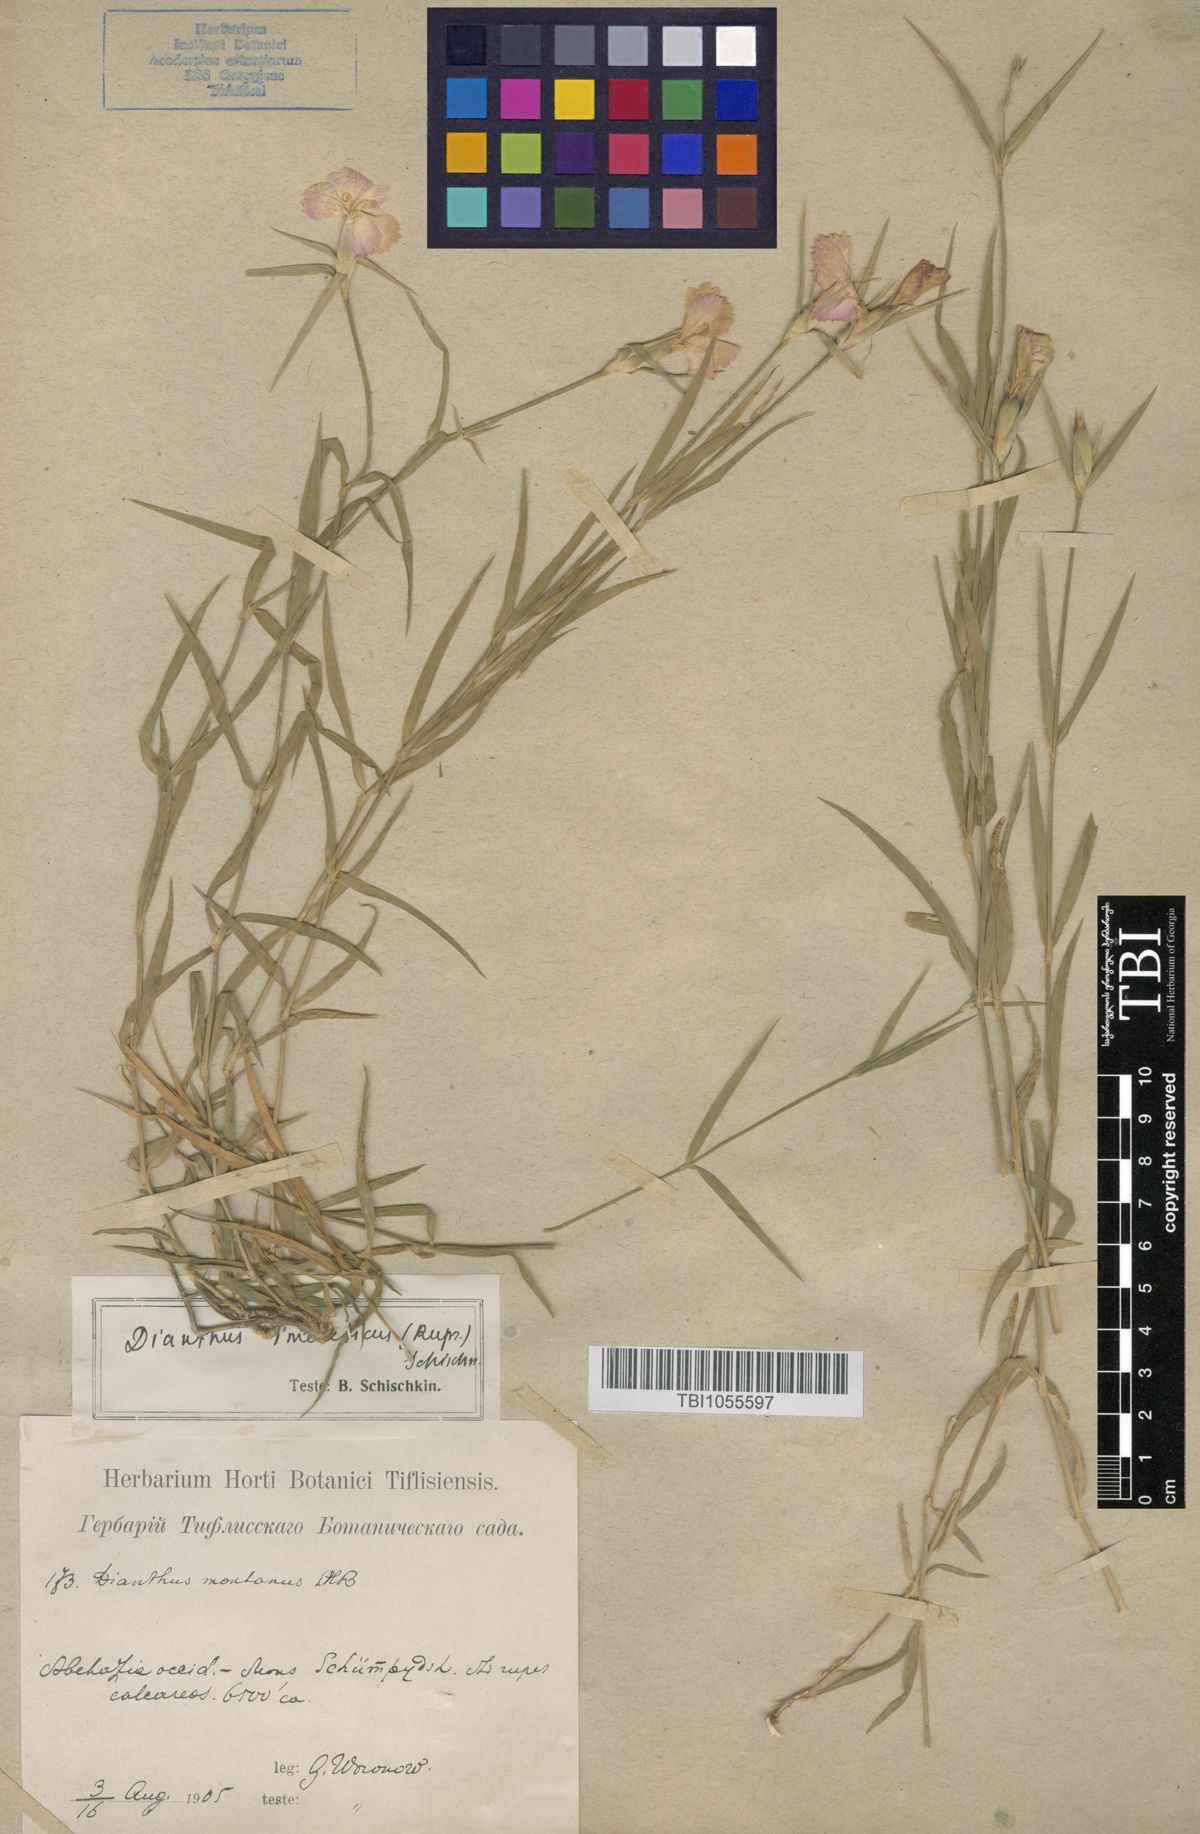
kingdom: Plantae
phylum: Tracheophyta
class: Magnoliopsida
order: Caryophyllales
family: Caryophyllaceae
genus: Dianthus
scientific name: Dianthus imereticus
